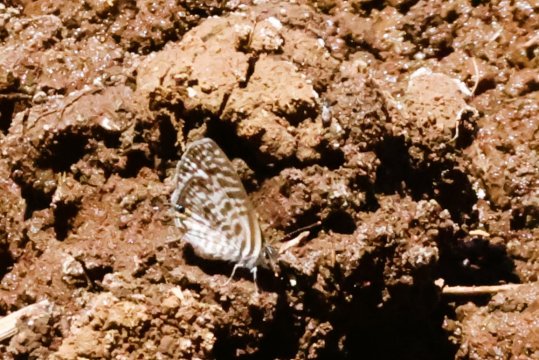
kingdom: Animalia
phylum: Arthropoda
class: Insecta
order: Lepidoptera
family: Lycaenidae
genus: Leptotes
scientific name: Leptotes pirithous
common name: Lang's Short-tailed Blue
